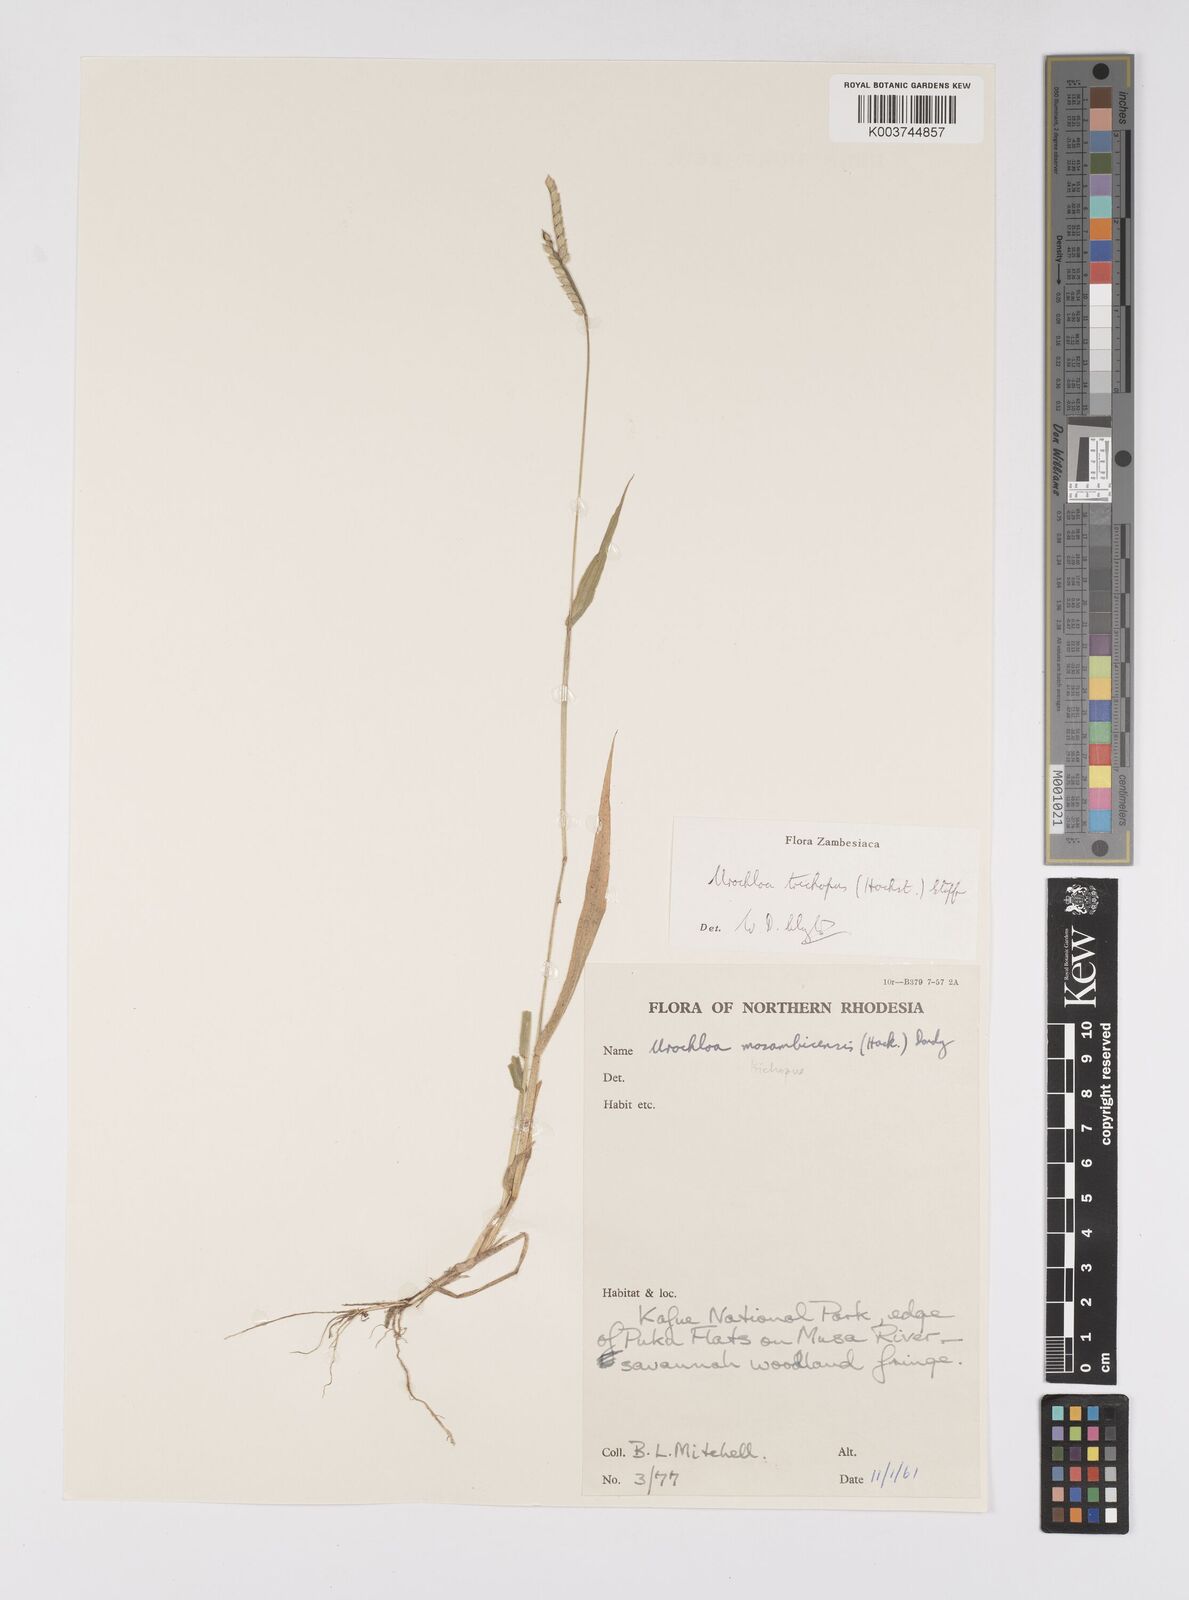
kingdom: Plantae
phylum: Tracheophyta
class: Liliopsida
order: Poales
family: Poaceae
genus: Urochloa
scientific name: Urochloa trichopus
